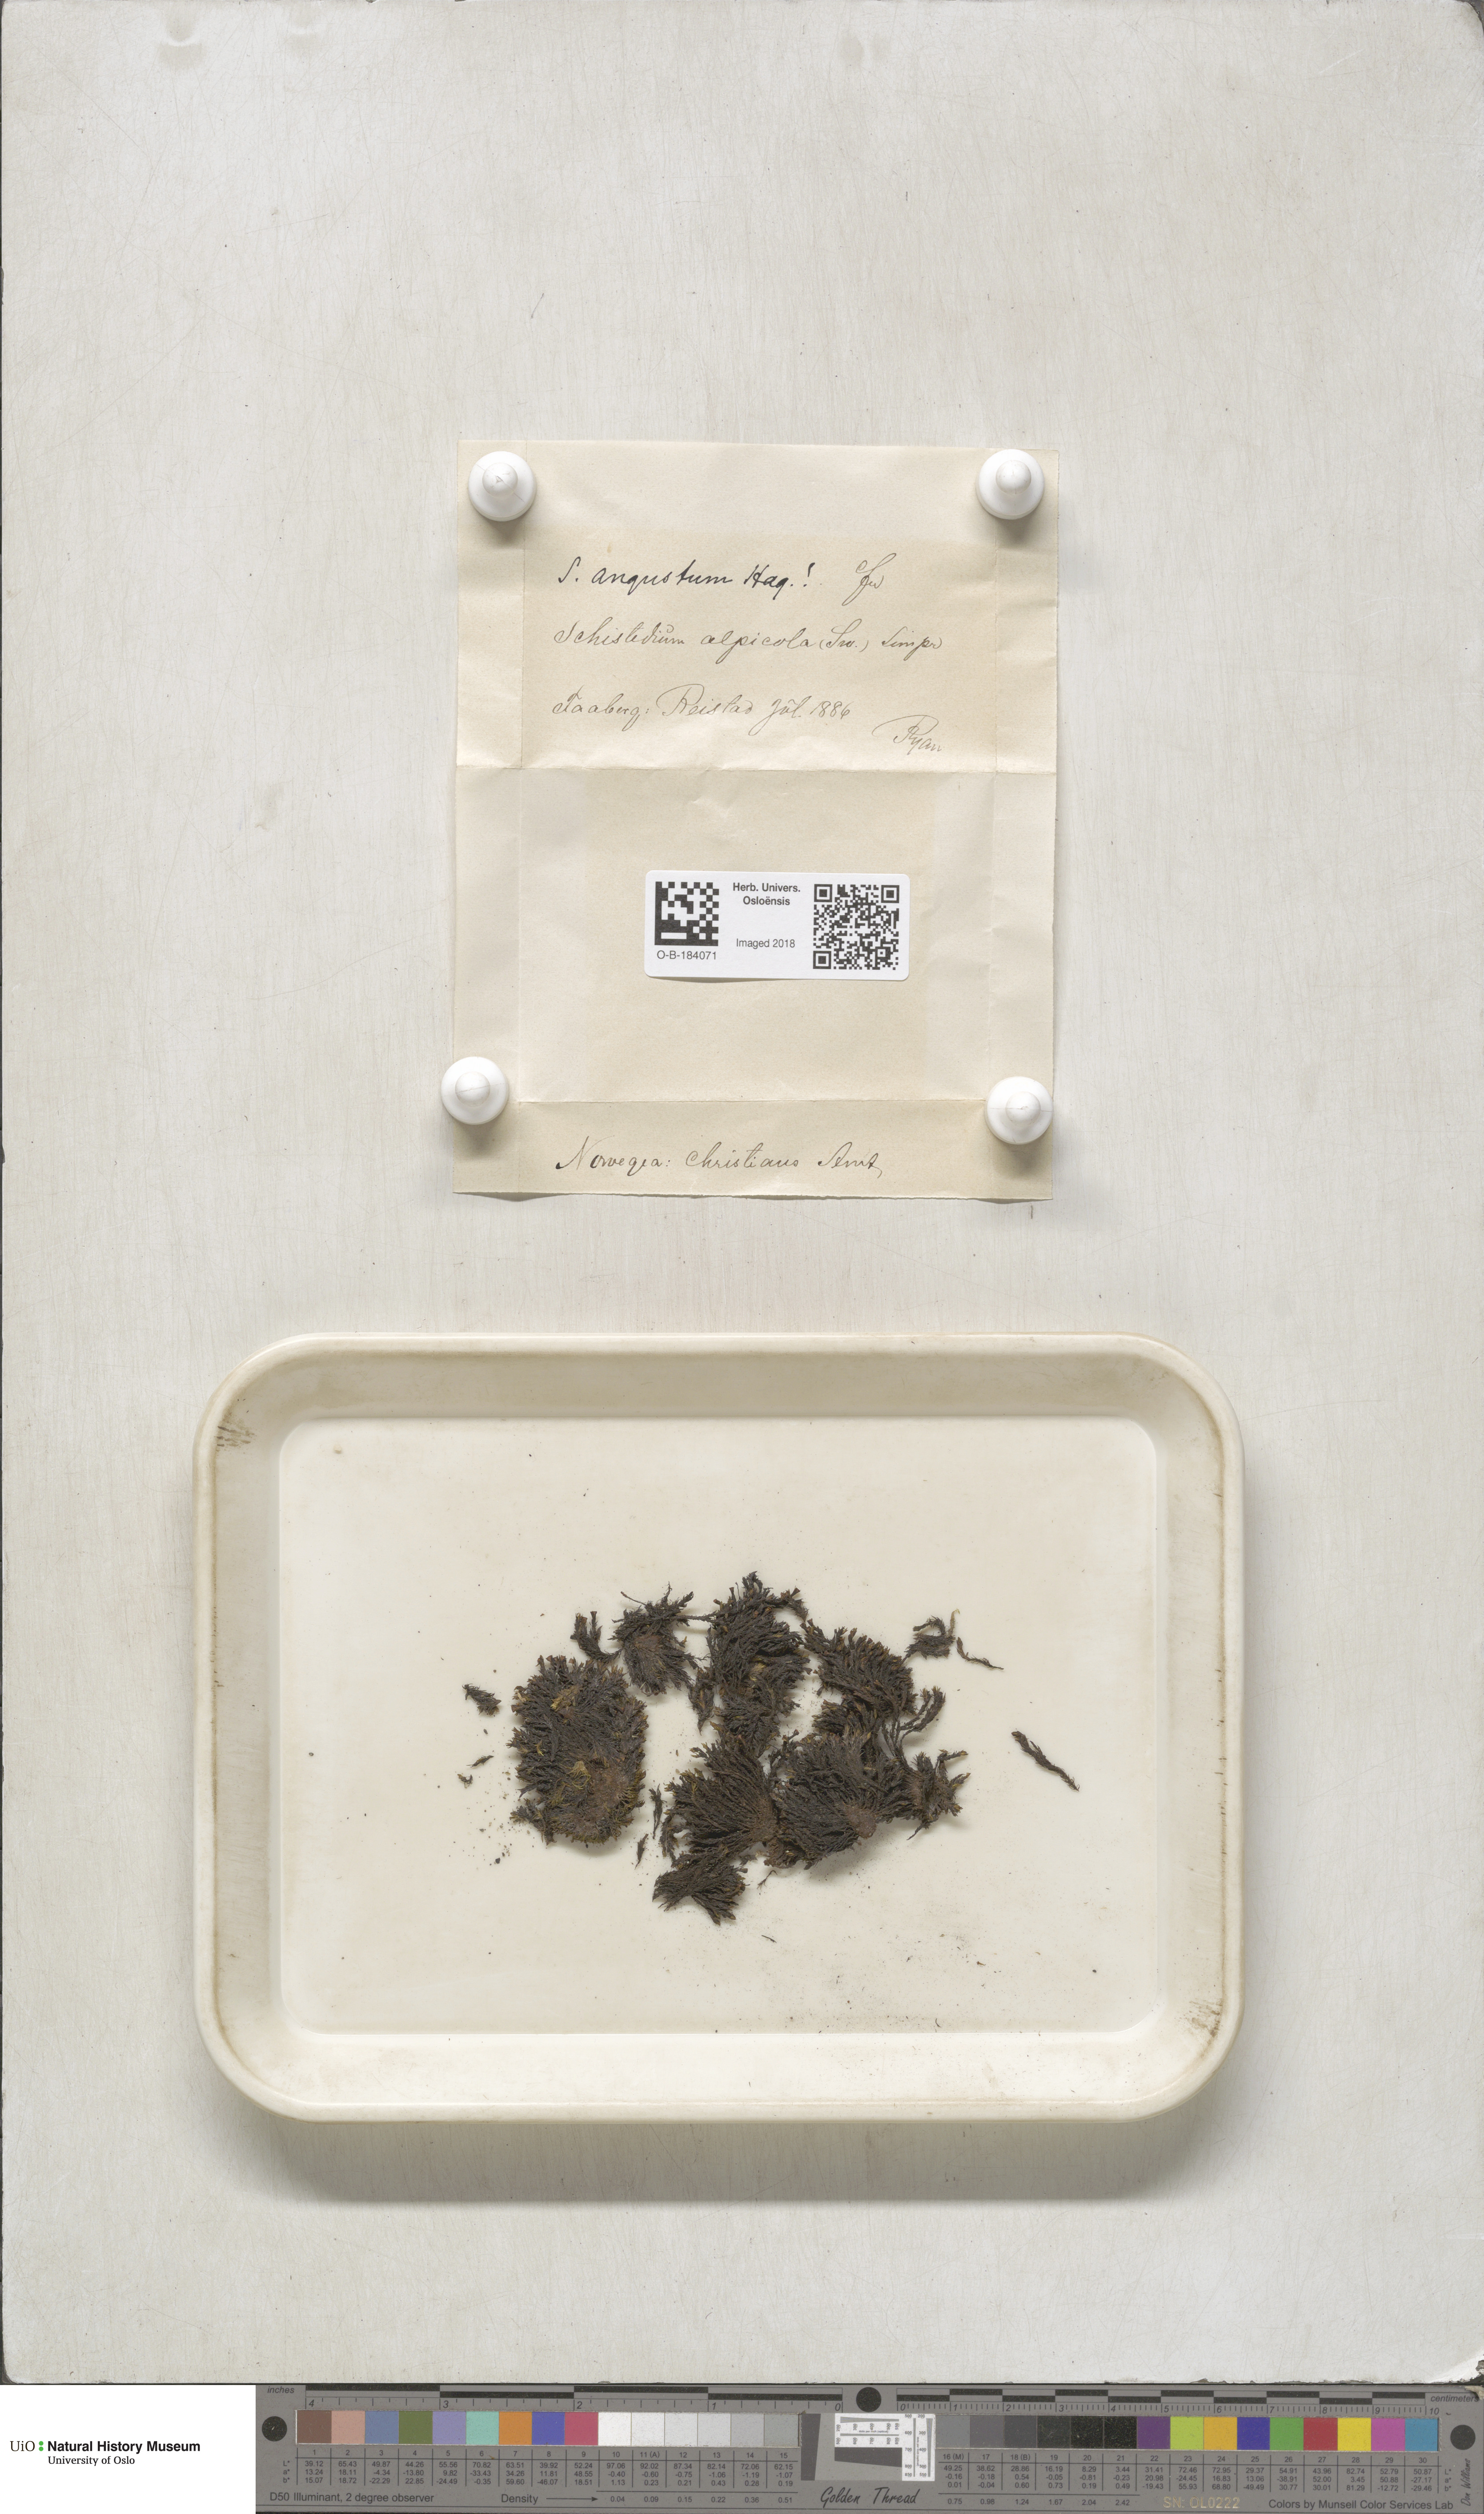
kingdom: Plantae
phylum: Bryophyta
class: Bryopsida
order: Grimmiales
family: Grimmiaceae
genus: Schistidium
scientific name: Schistidium agassizii
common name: Agassiz's bloom moss
